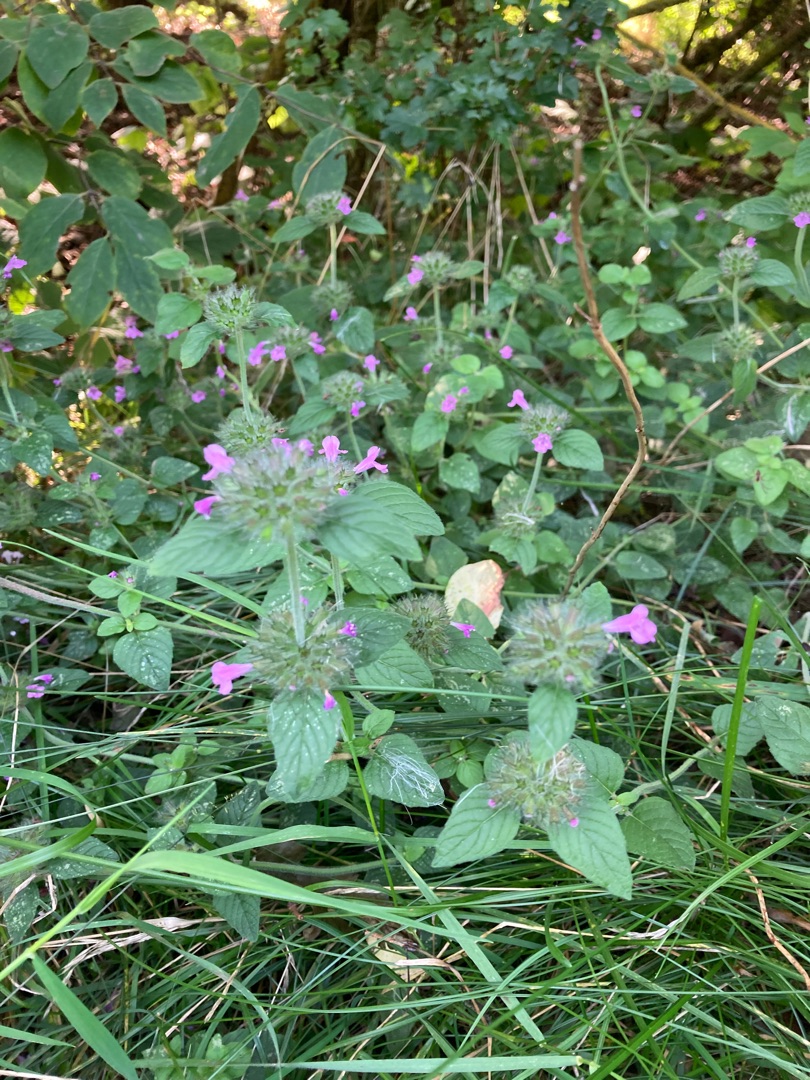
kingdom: Plantae
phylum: Tracheophyta
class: Magnoliopsida
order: Lamiales
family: Lamiaceae
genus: Clinopodium
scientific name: Clinopodium vulgare
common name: Kransbørste
